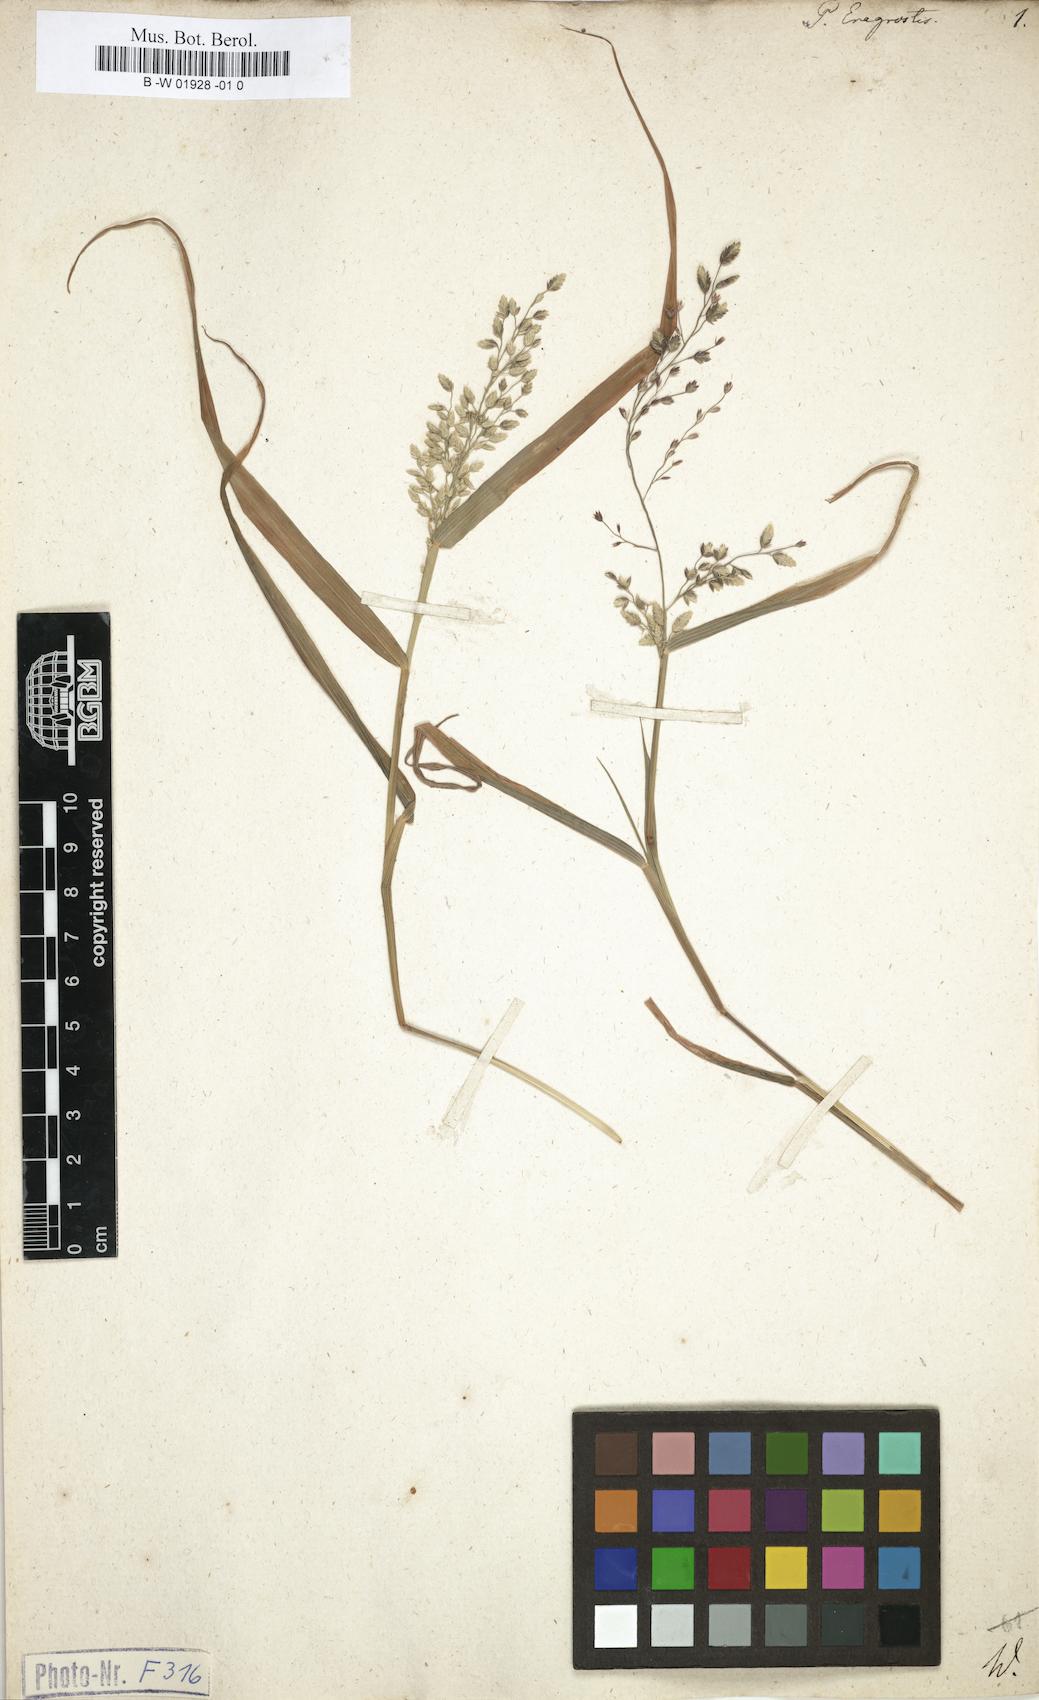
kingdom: Plantae
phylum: Tracheophyta
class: Liliopsida
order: Poales
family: Poaceae
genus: Poa
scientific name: Poa eragrostis
